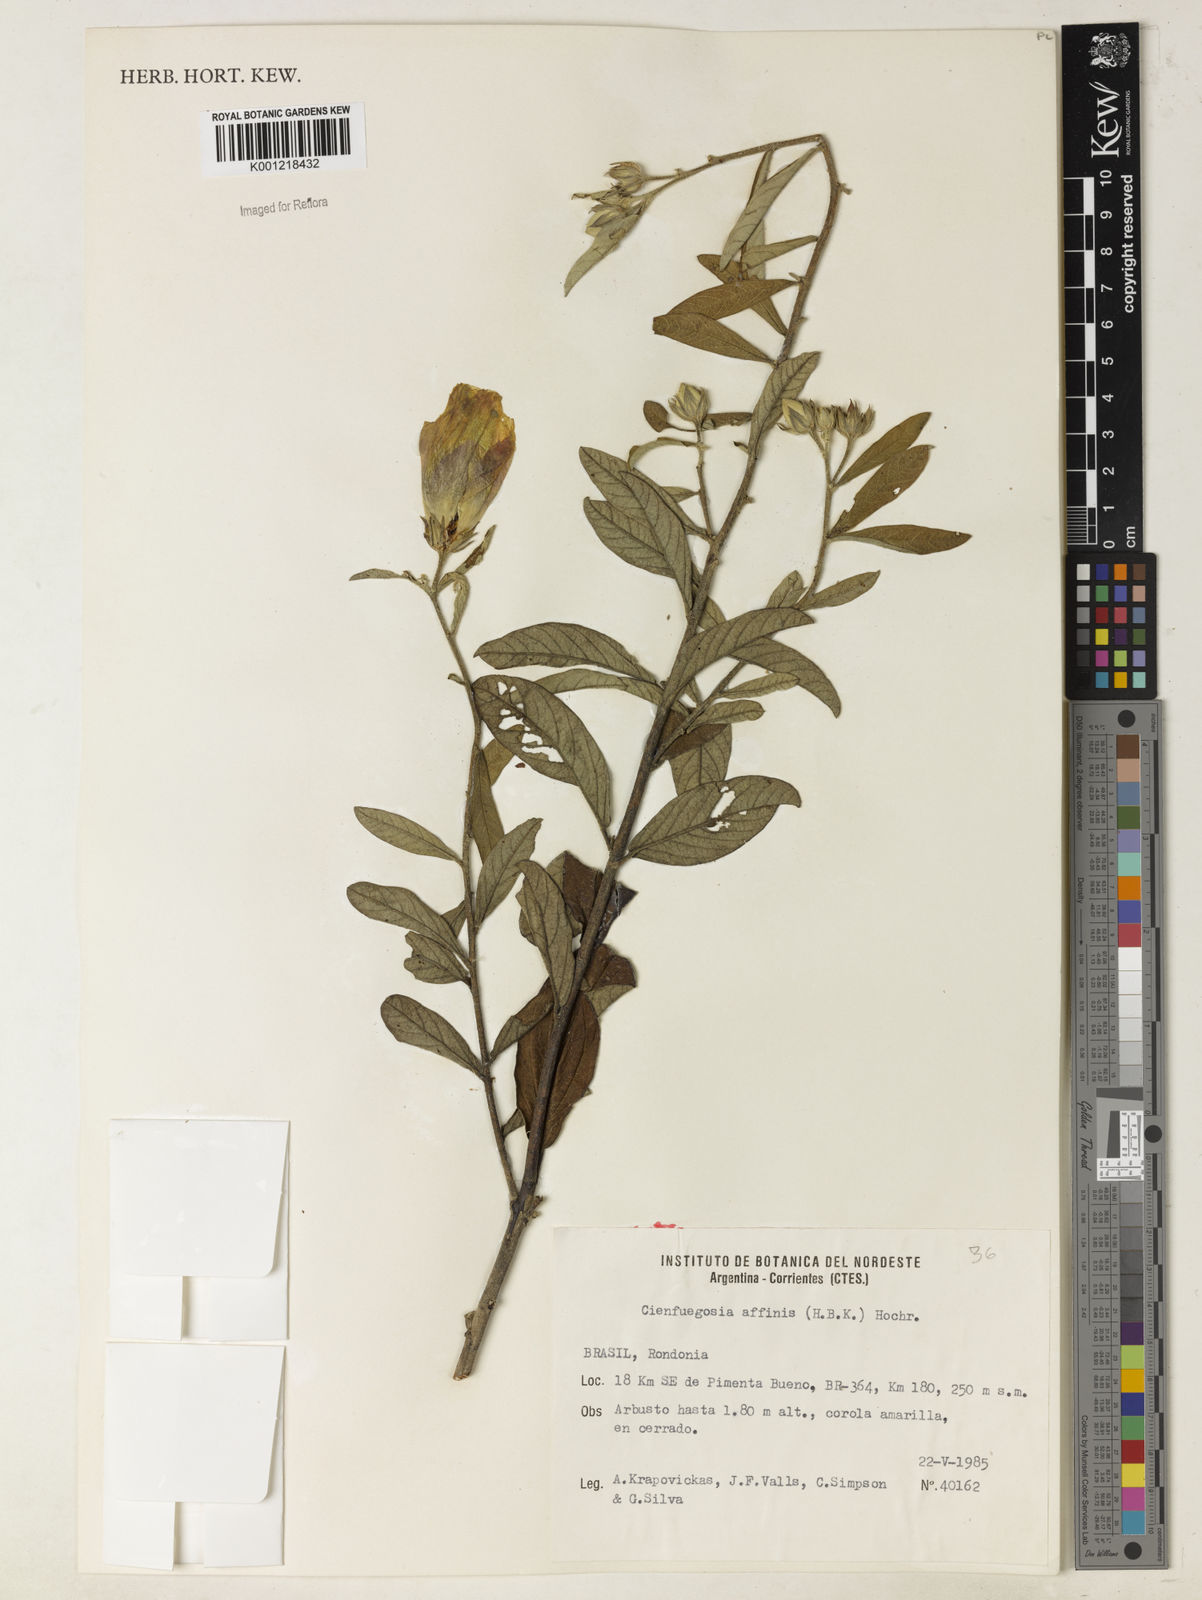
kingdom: Plantae
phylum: Tracheophyta
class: Magnoliopsida
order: Malvales
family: Malvaceae
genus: Cienfuegosia
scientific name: Cienfuegosia affinis
